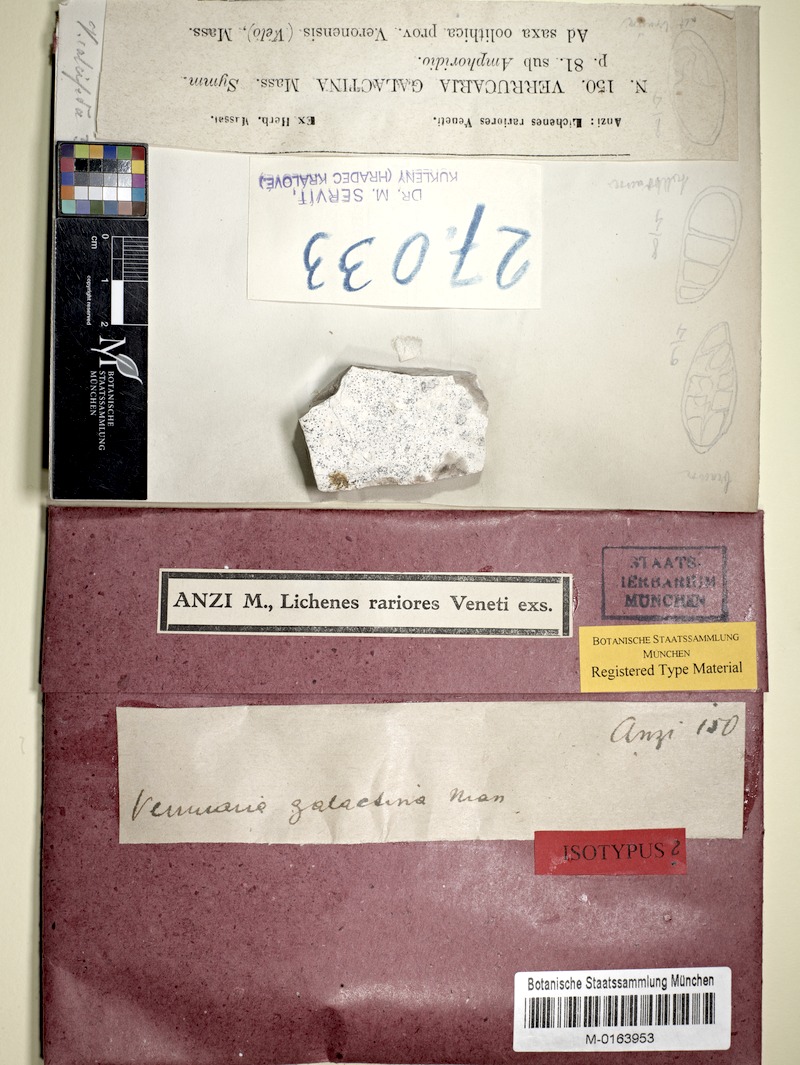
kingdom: Fungi
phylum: Ascomycota
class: Eurotiomycetes
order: Verrucariales
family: Verrucariaceae
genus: Verrucaria
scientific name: Verrucaria galactina
